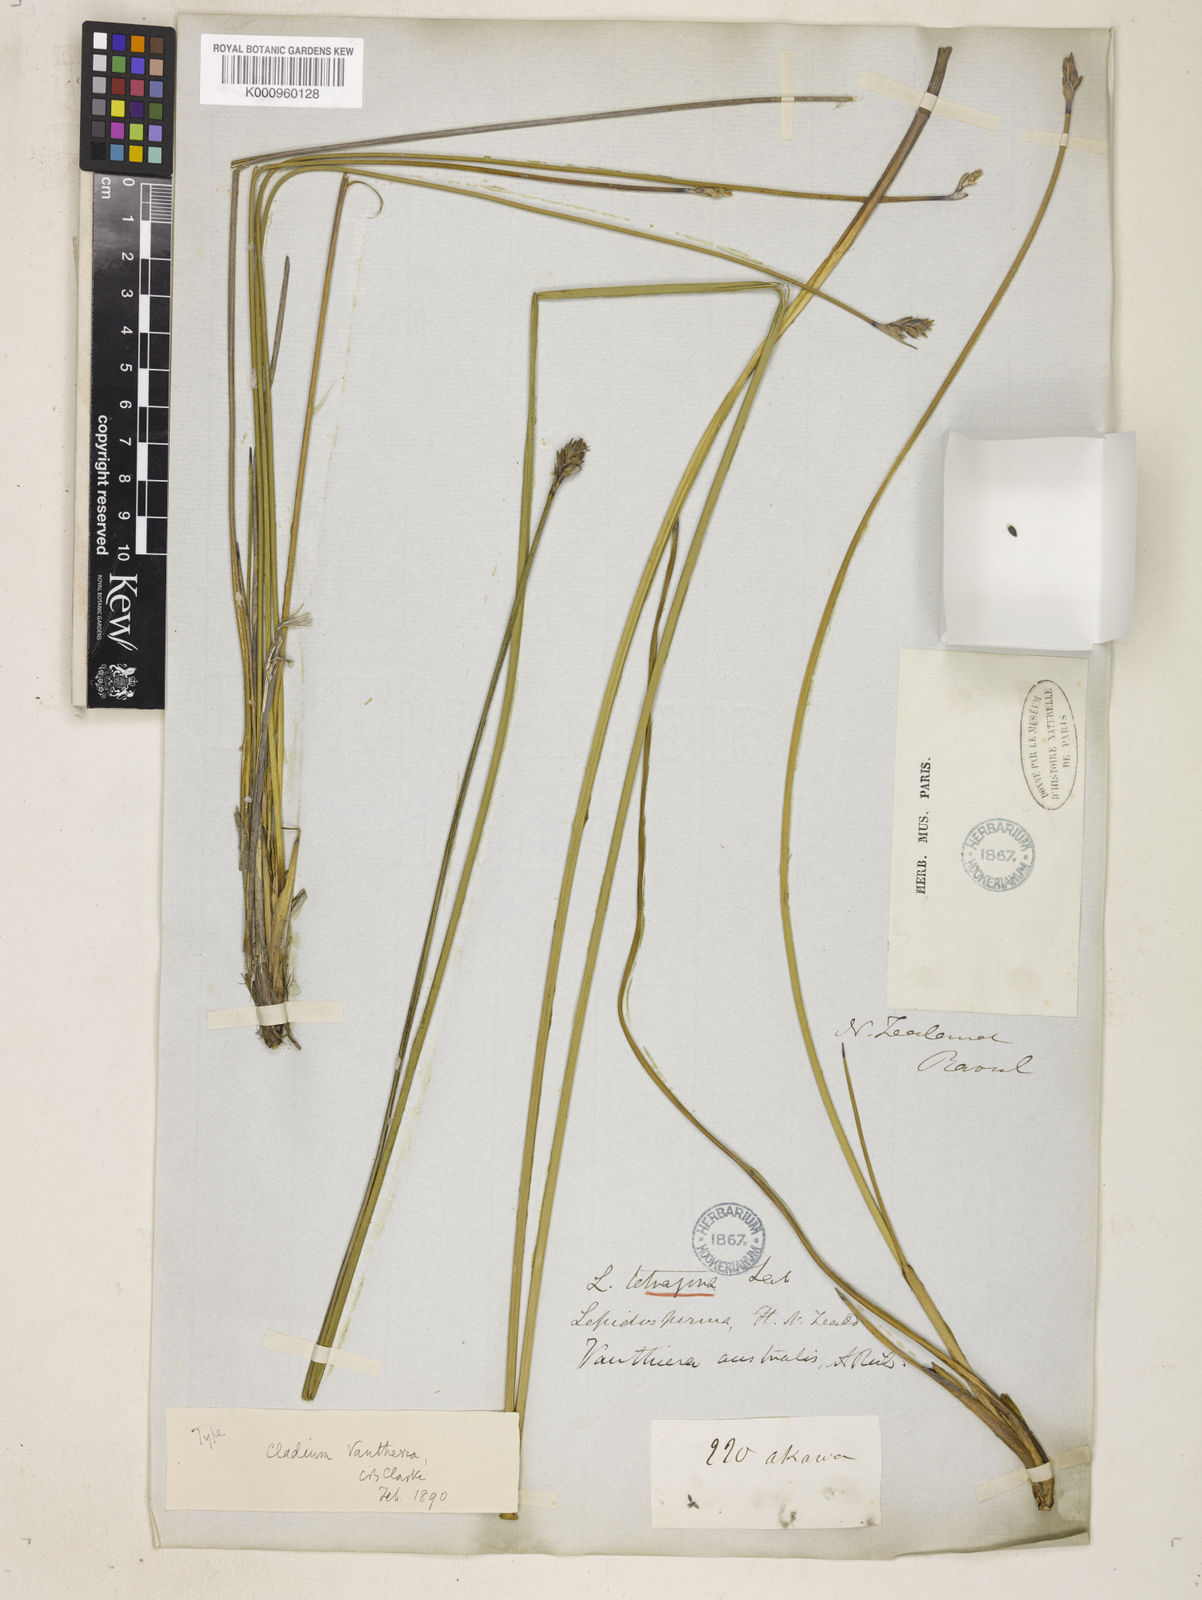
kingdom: Plantae
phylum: Tracheophyta
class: Liliopsida
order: Poales
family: Cyperaceae
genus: Lepidosperma
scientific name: Lepidosperma australe
